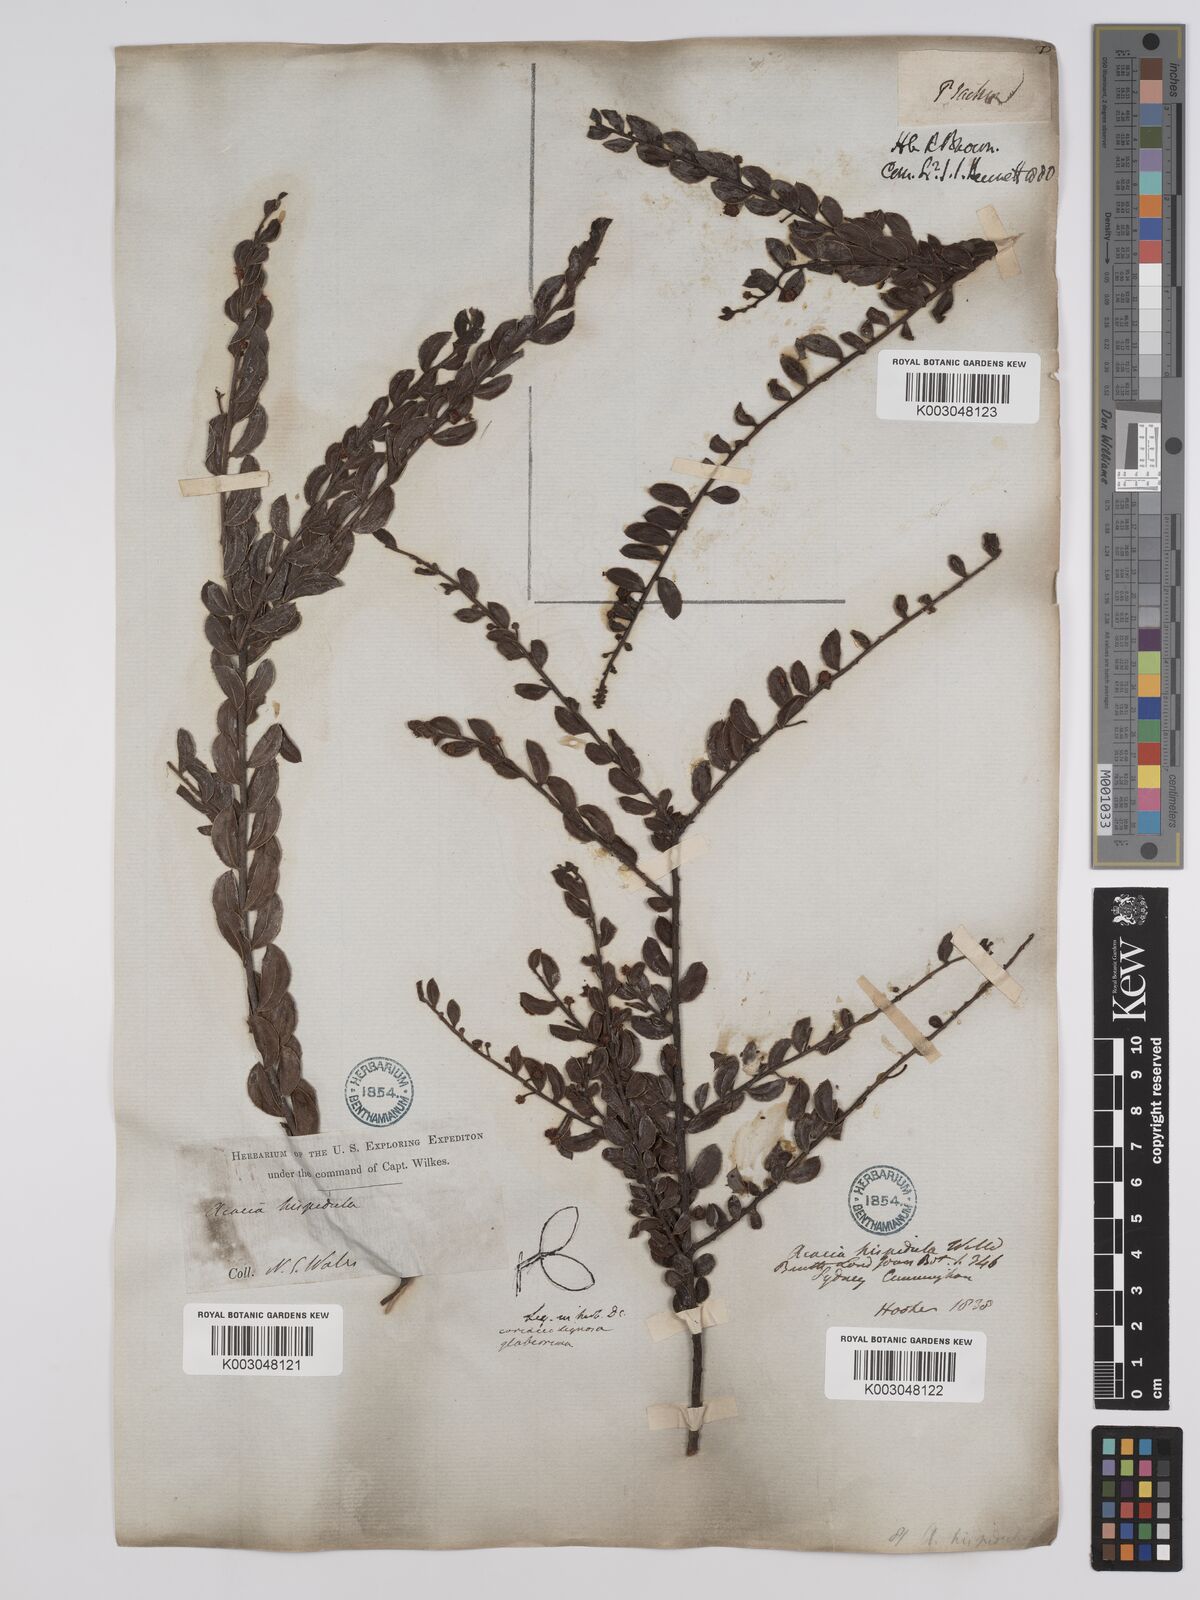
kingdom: Plantae
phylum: Tracheophyta
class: Magnoliopsida
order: Fabales
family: Fabaceae
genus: Acacia
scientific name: Acacia hispidula
